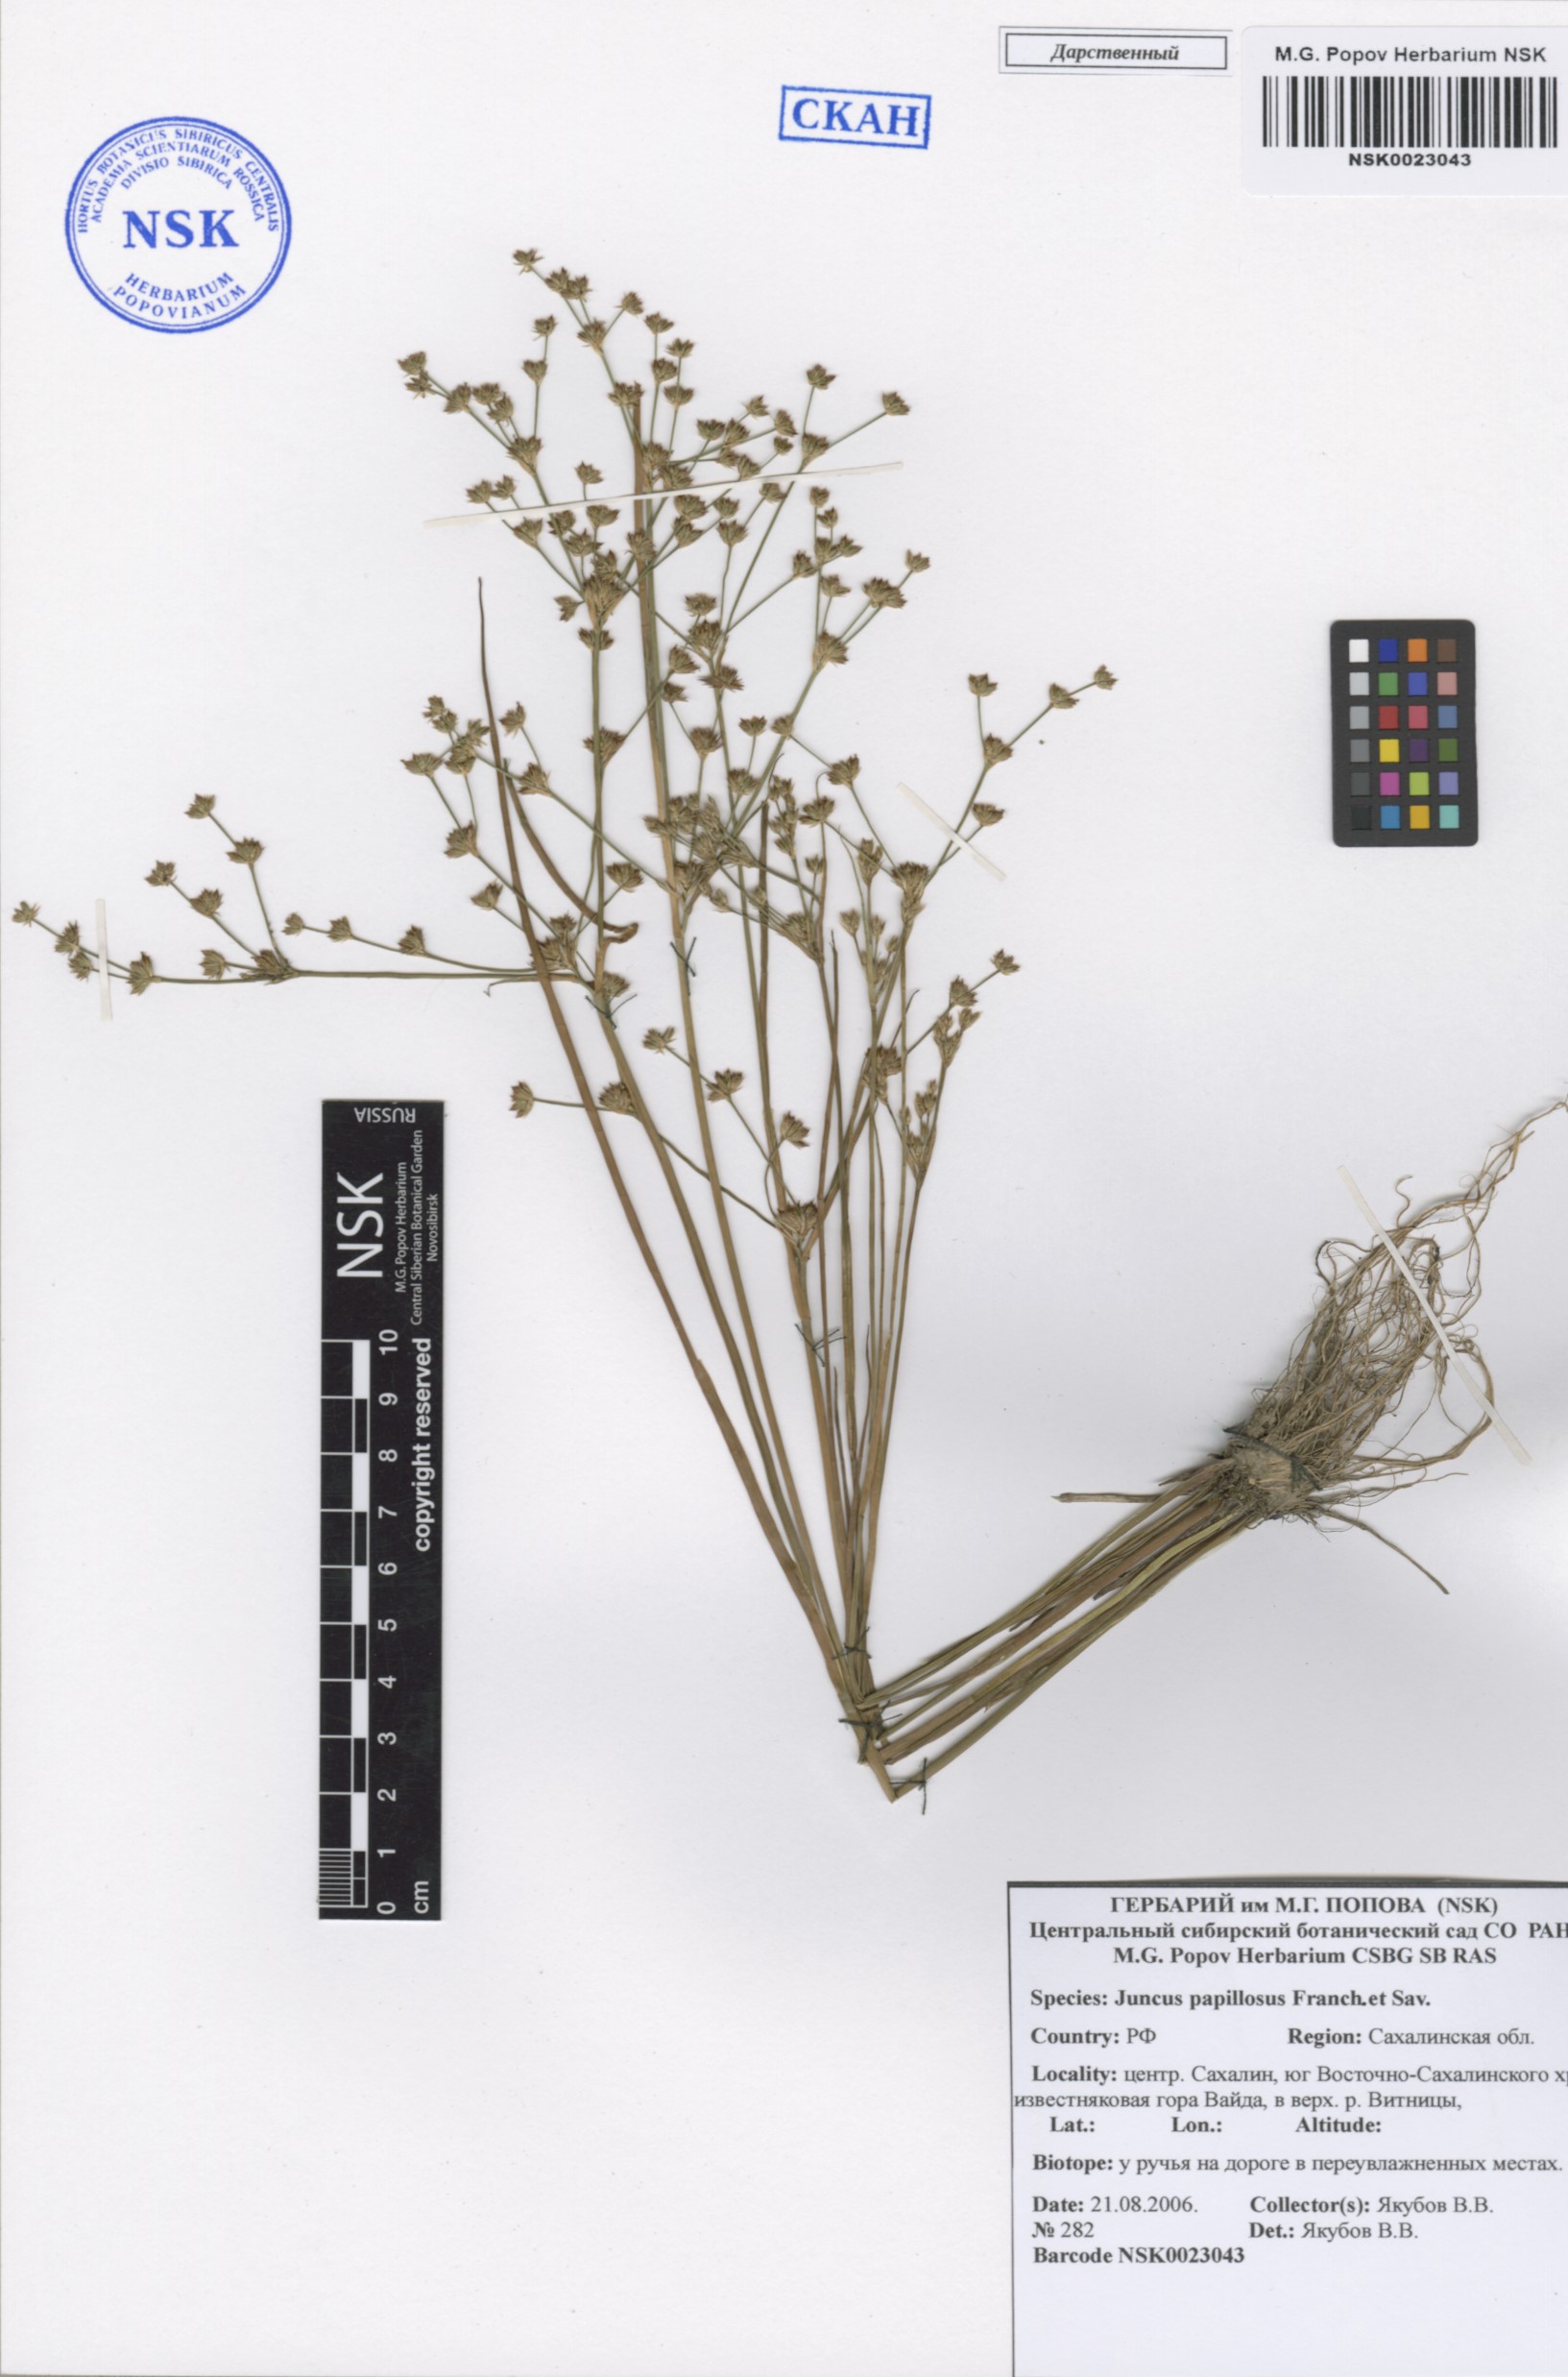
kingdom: Plantae
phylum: Tracheophyta
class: Liliopsida
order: Poales
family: Juncaceae
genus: Juncus
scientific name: Juncus papillosus
